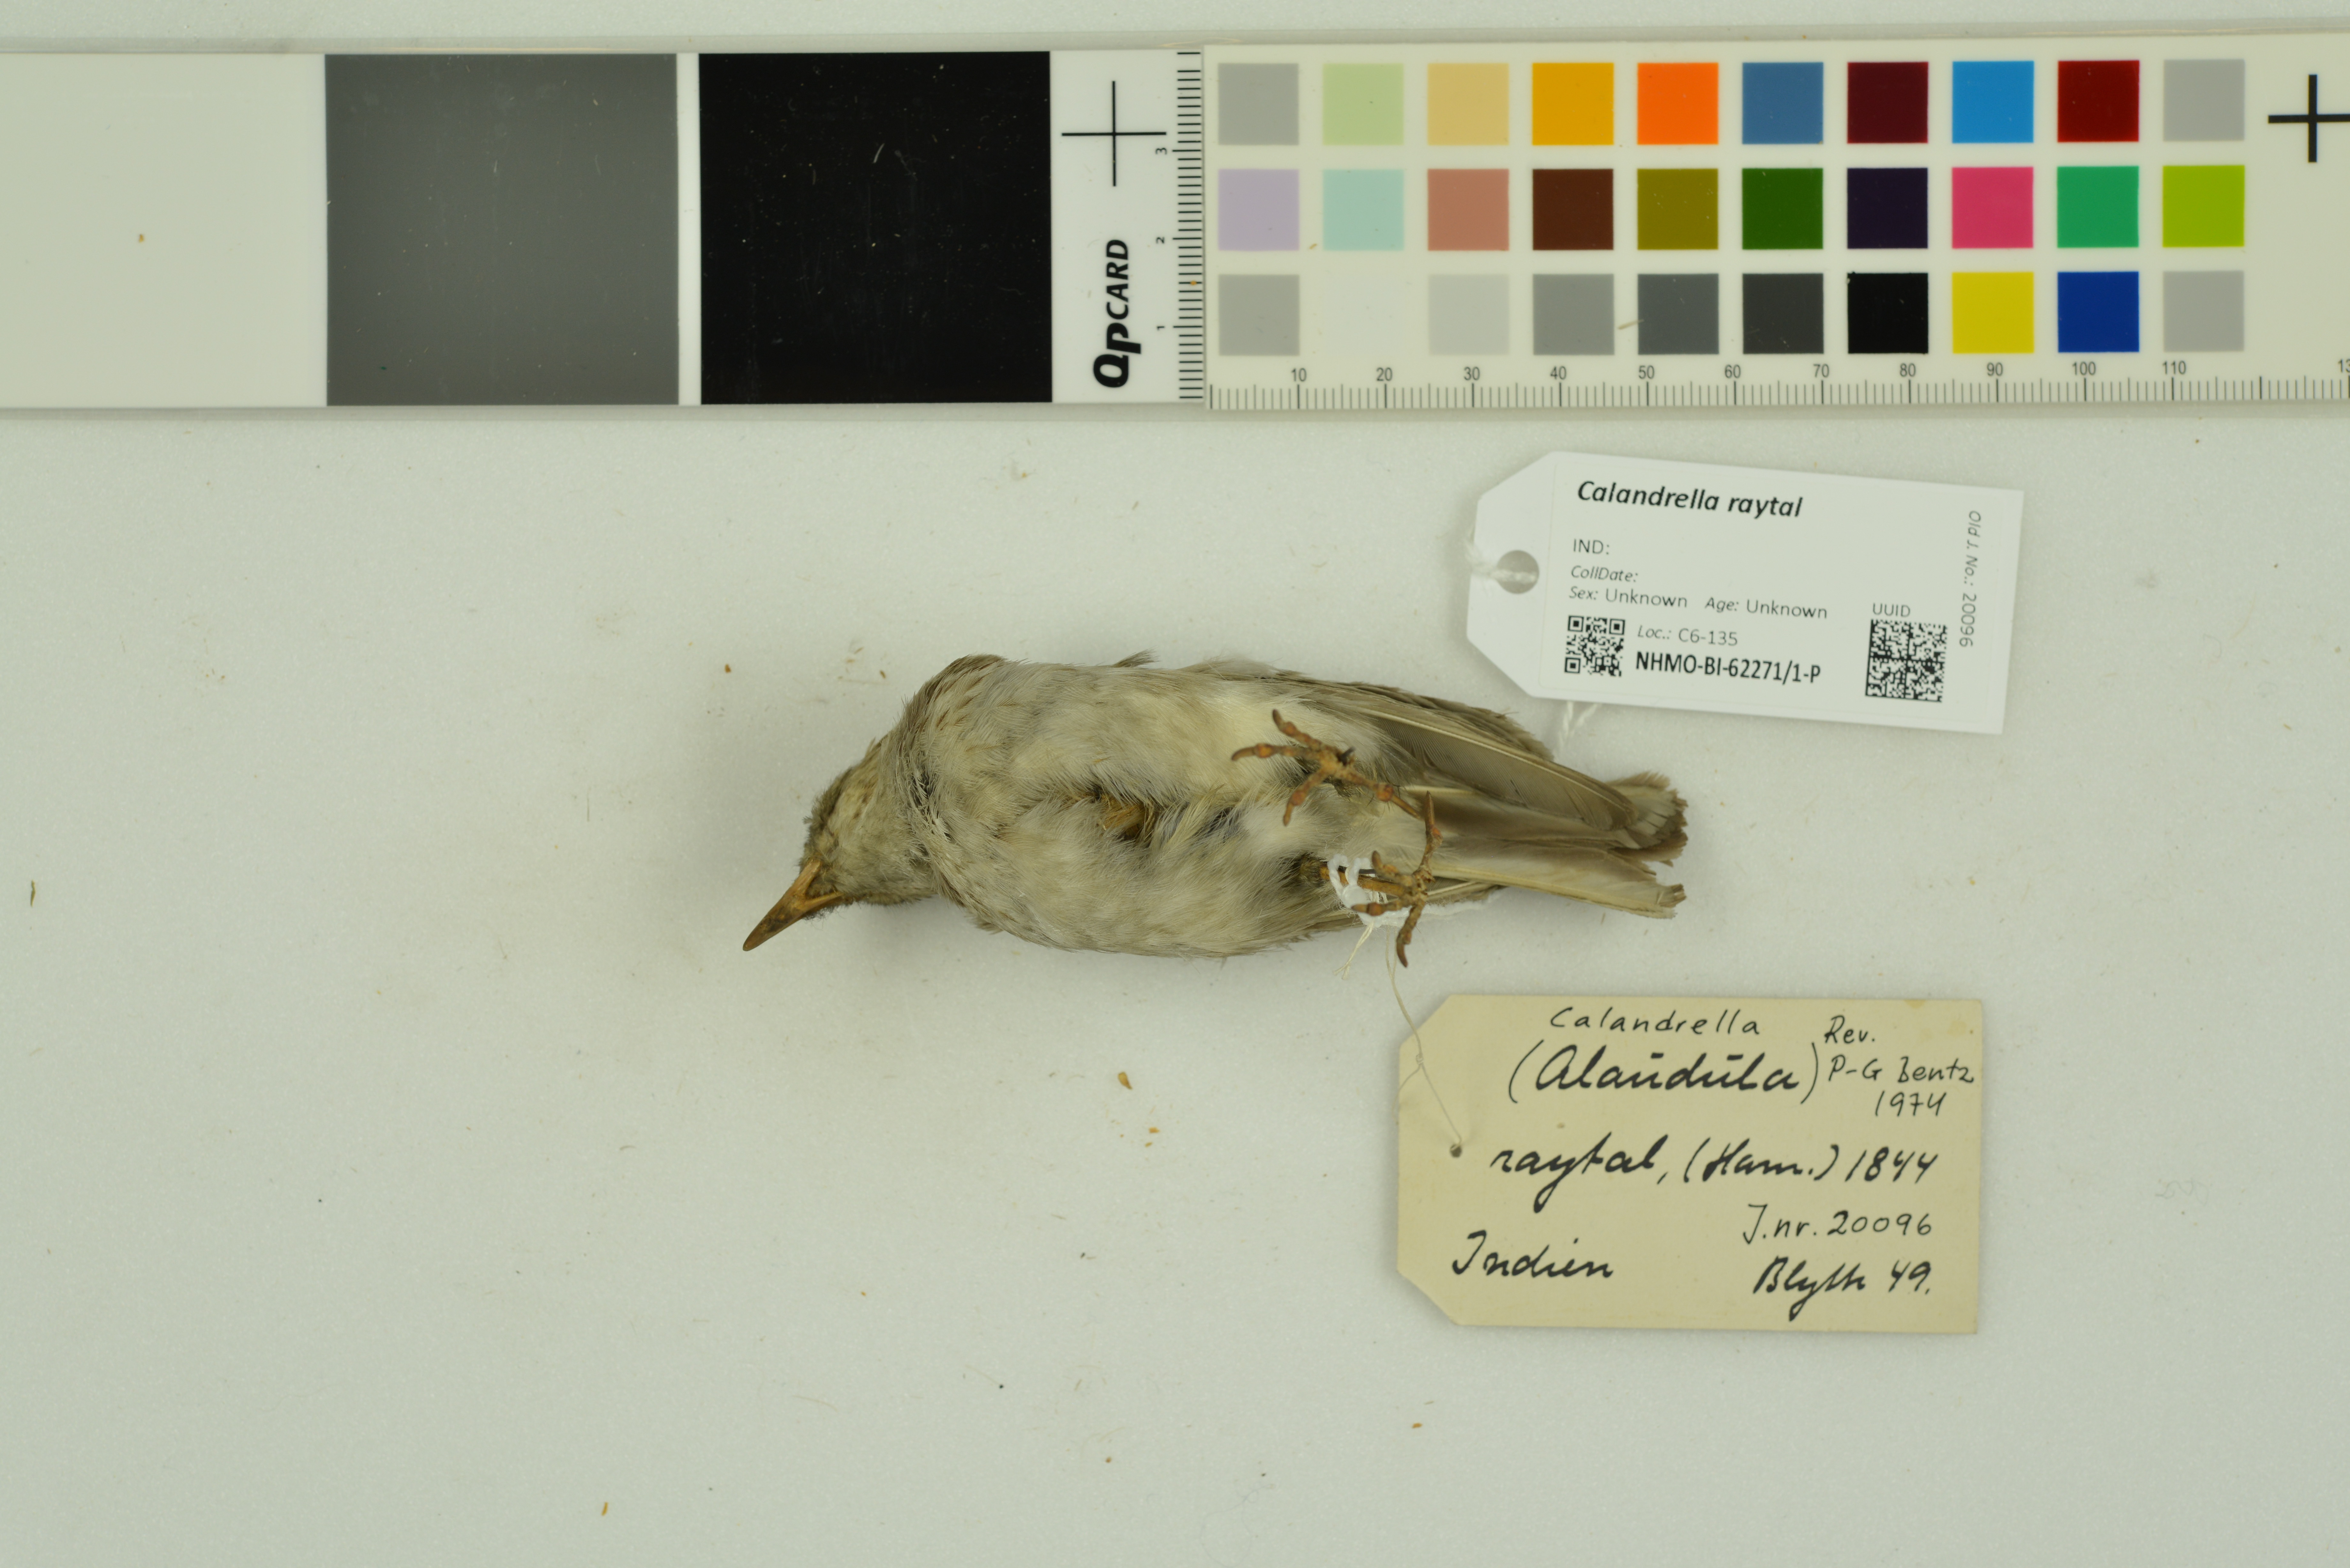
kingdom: Animalia
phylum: Chordata
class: Aves
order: Passeriformes
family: Alaudidae
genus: Calandrella
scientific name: Calandrella raytal
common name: Sand lark
